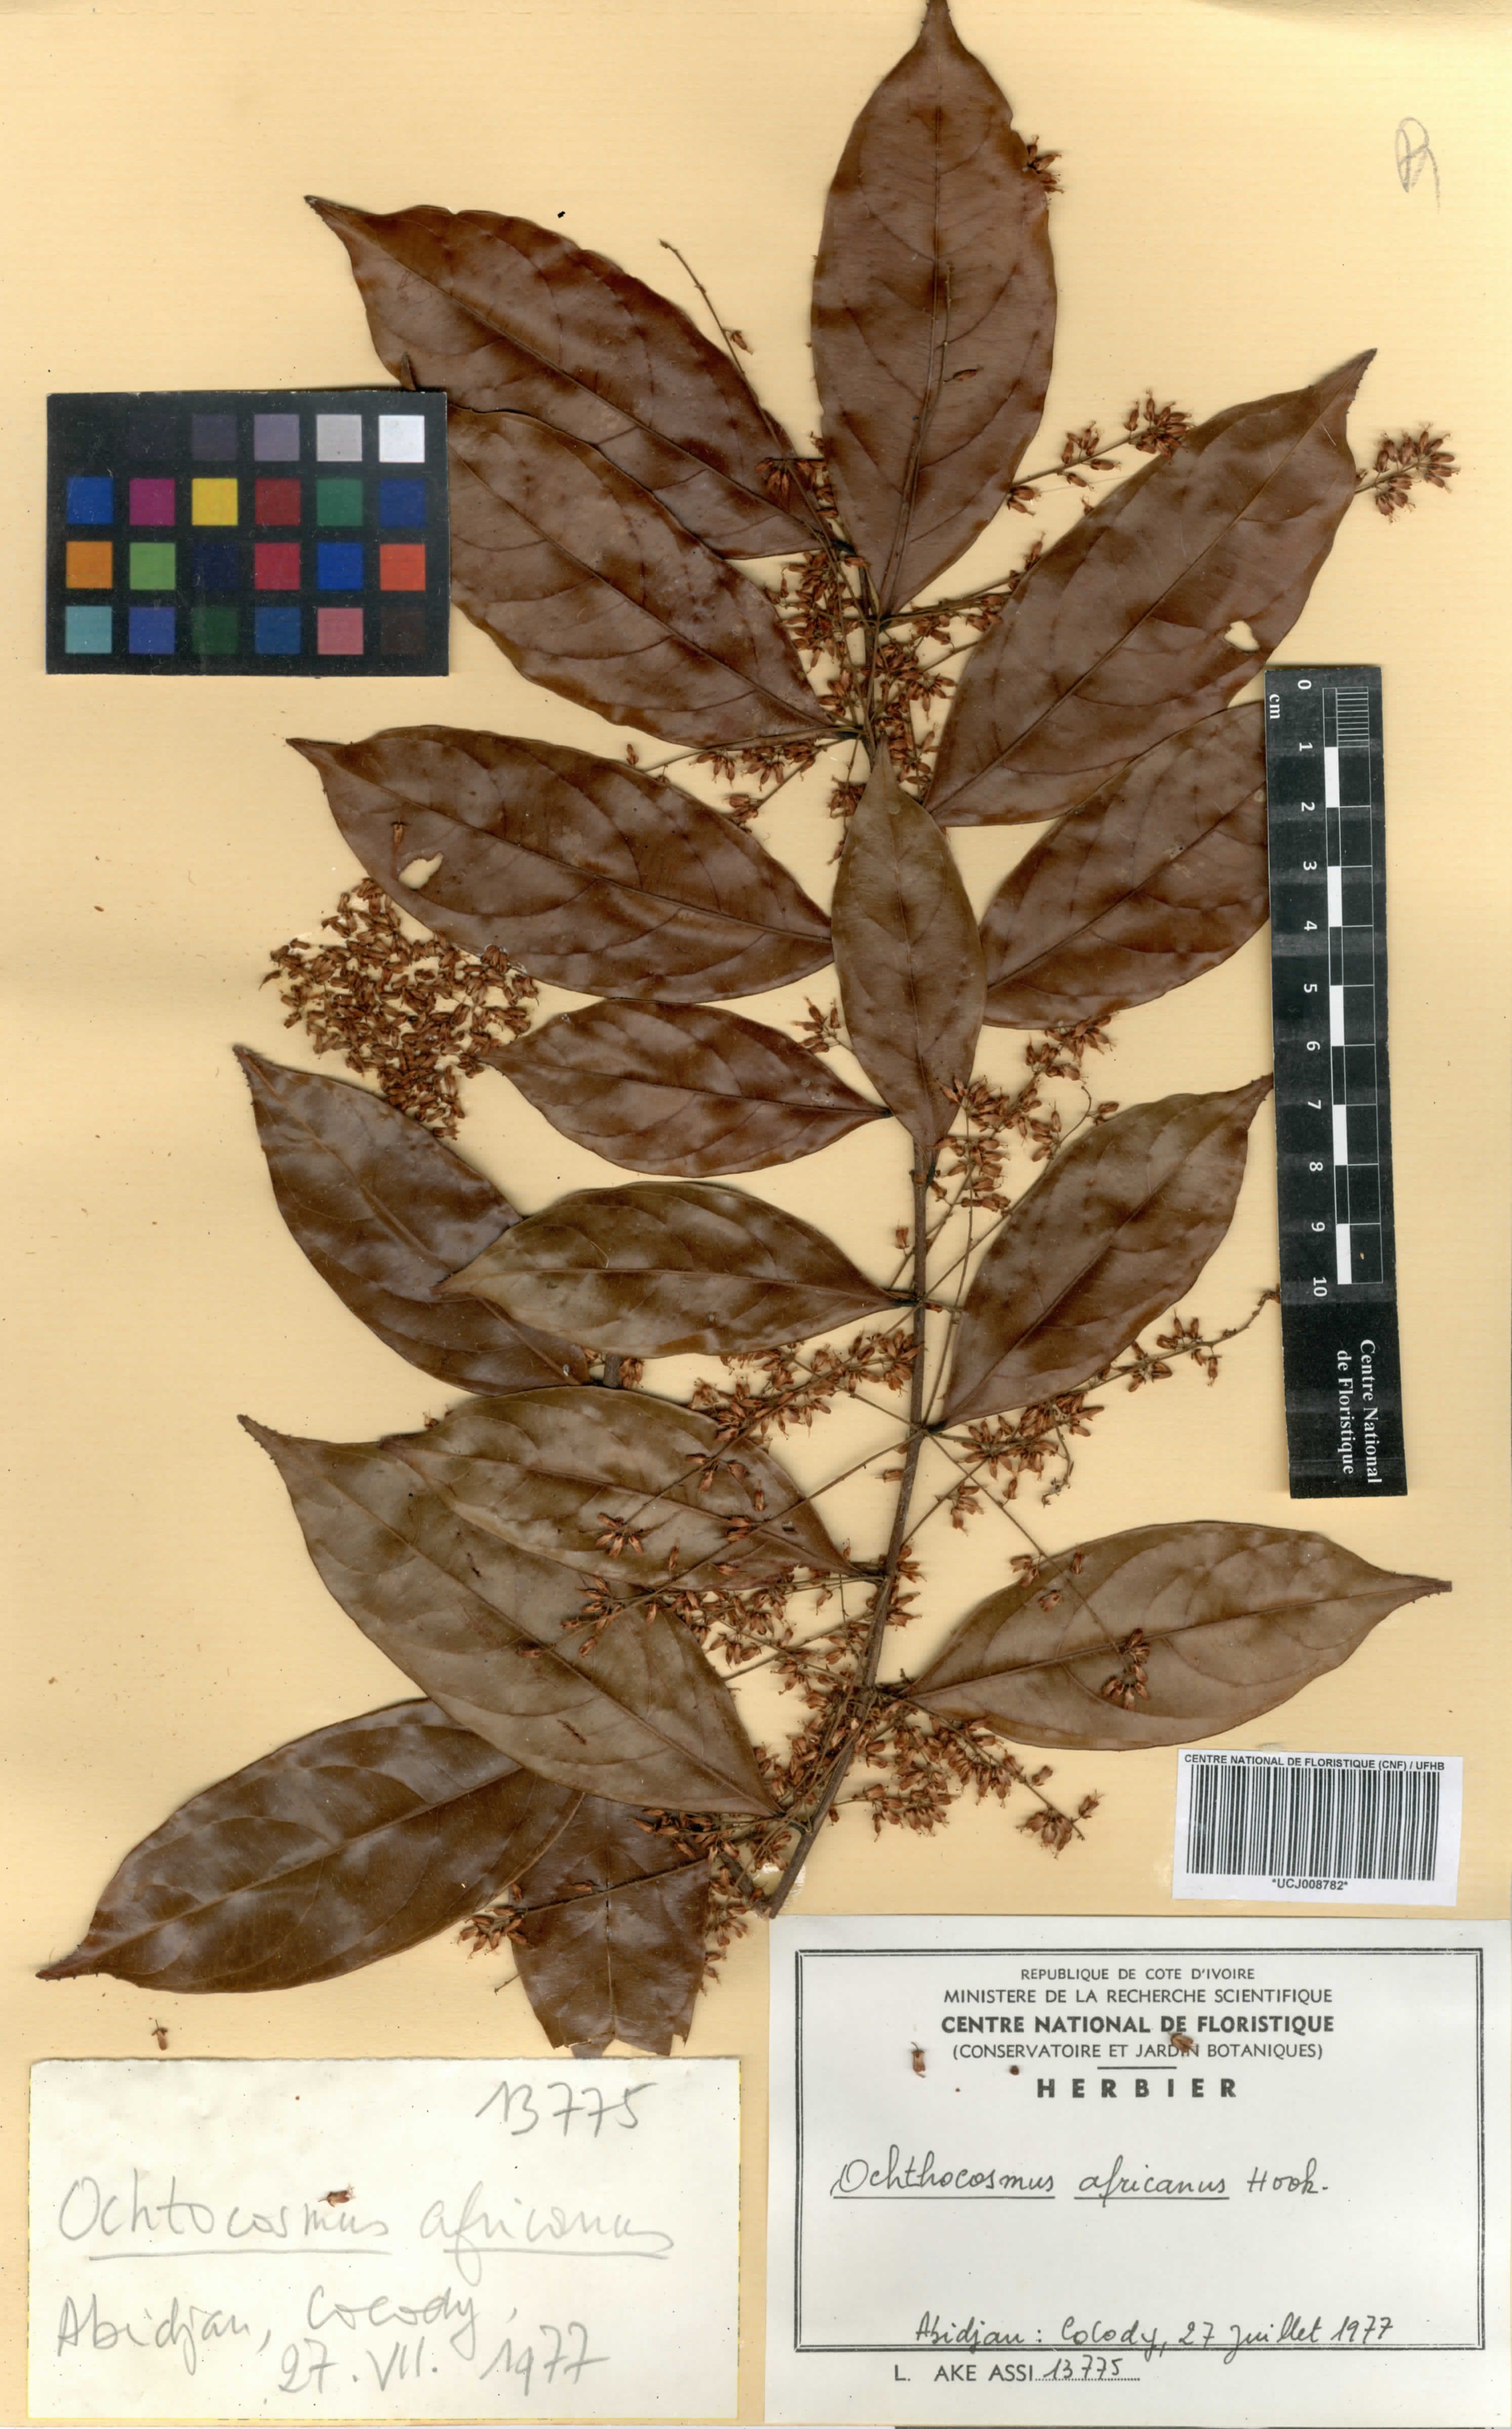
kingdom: Plantae
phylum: Tracheophyta
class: Magnoliopsida
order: Malpighiales
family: Ixonanthaceae
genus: Phyllocosmus
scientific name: Phyllocosmus africanus
